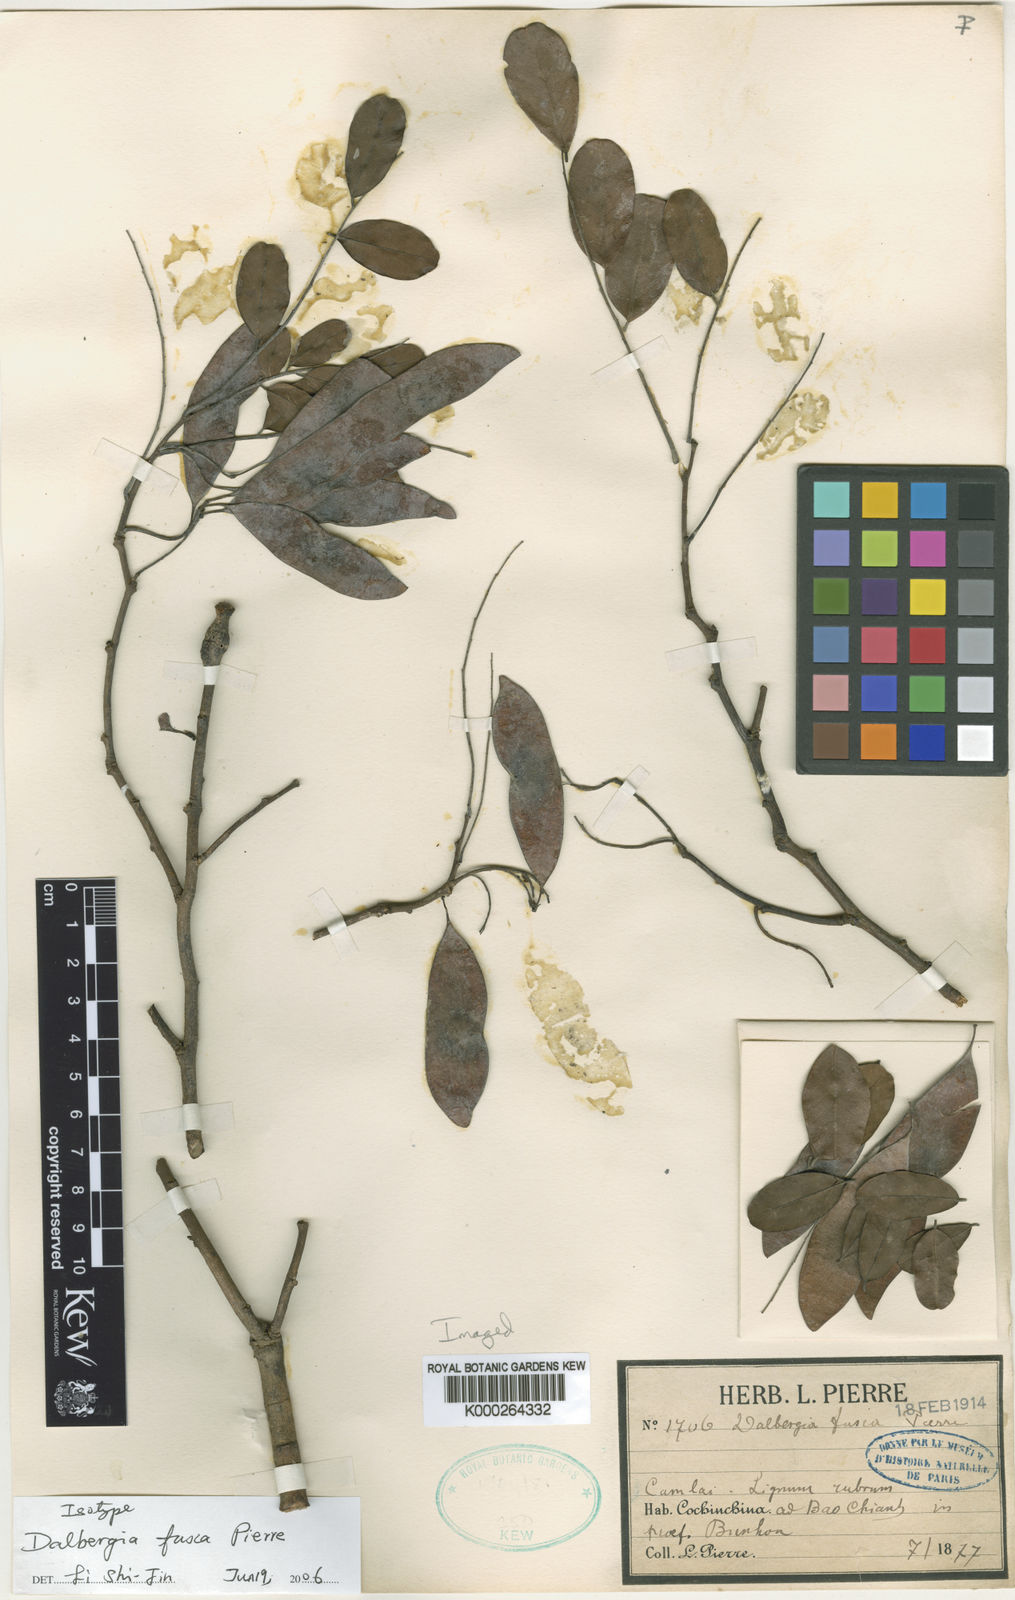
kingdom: Plantae
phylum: Tracheophyta
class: Magnoliopsida
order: Fabales
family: Fabaceae
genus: Dalbergia
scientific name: Dalbergia cultrata
